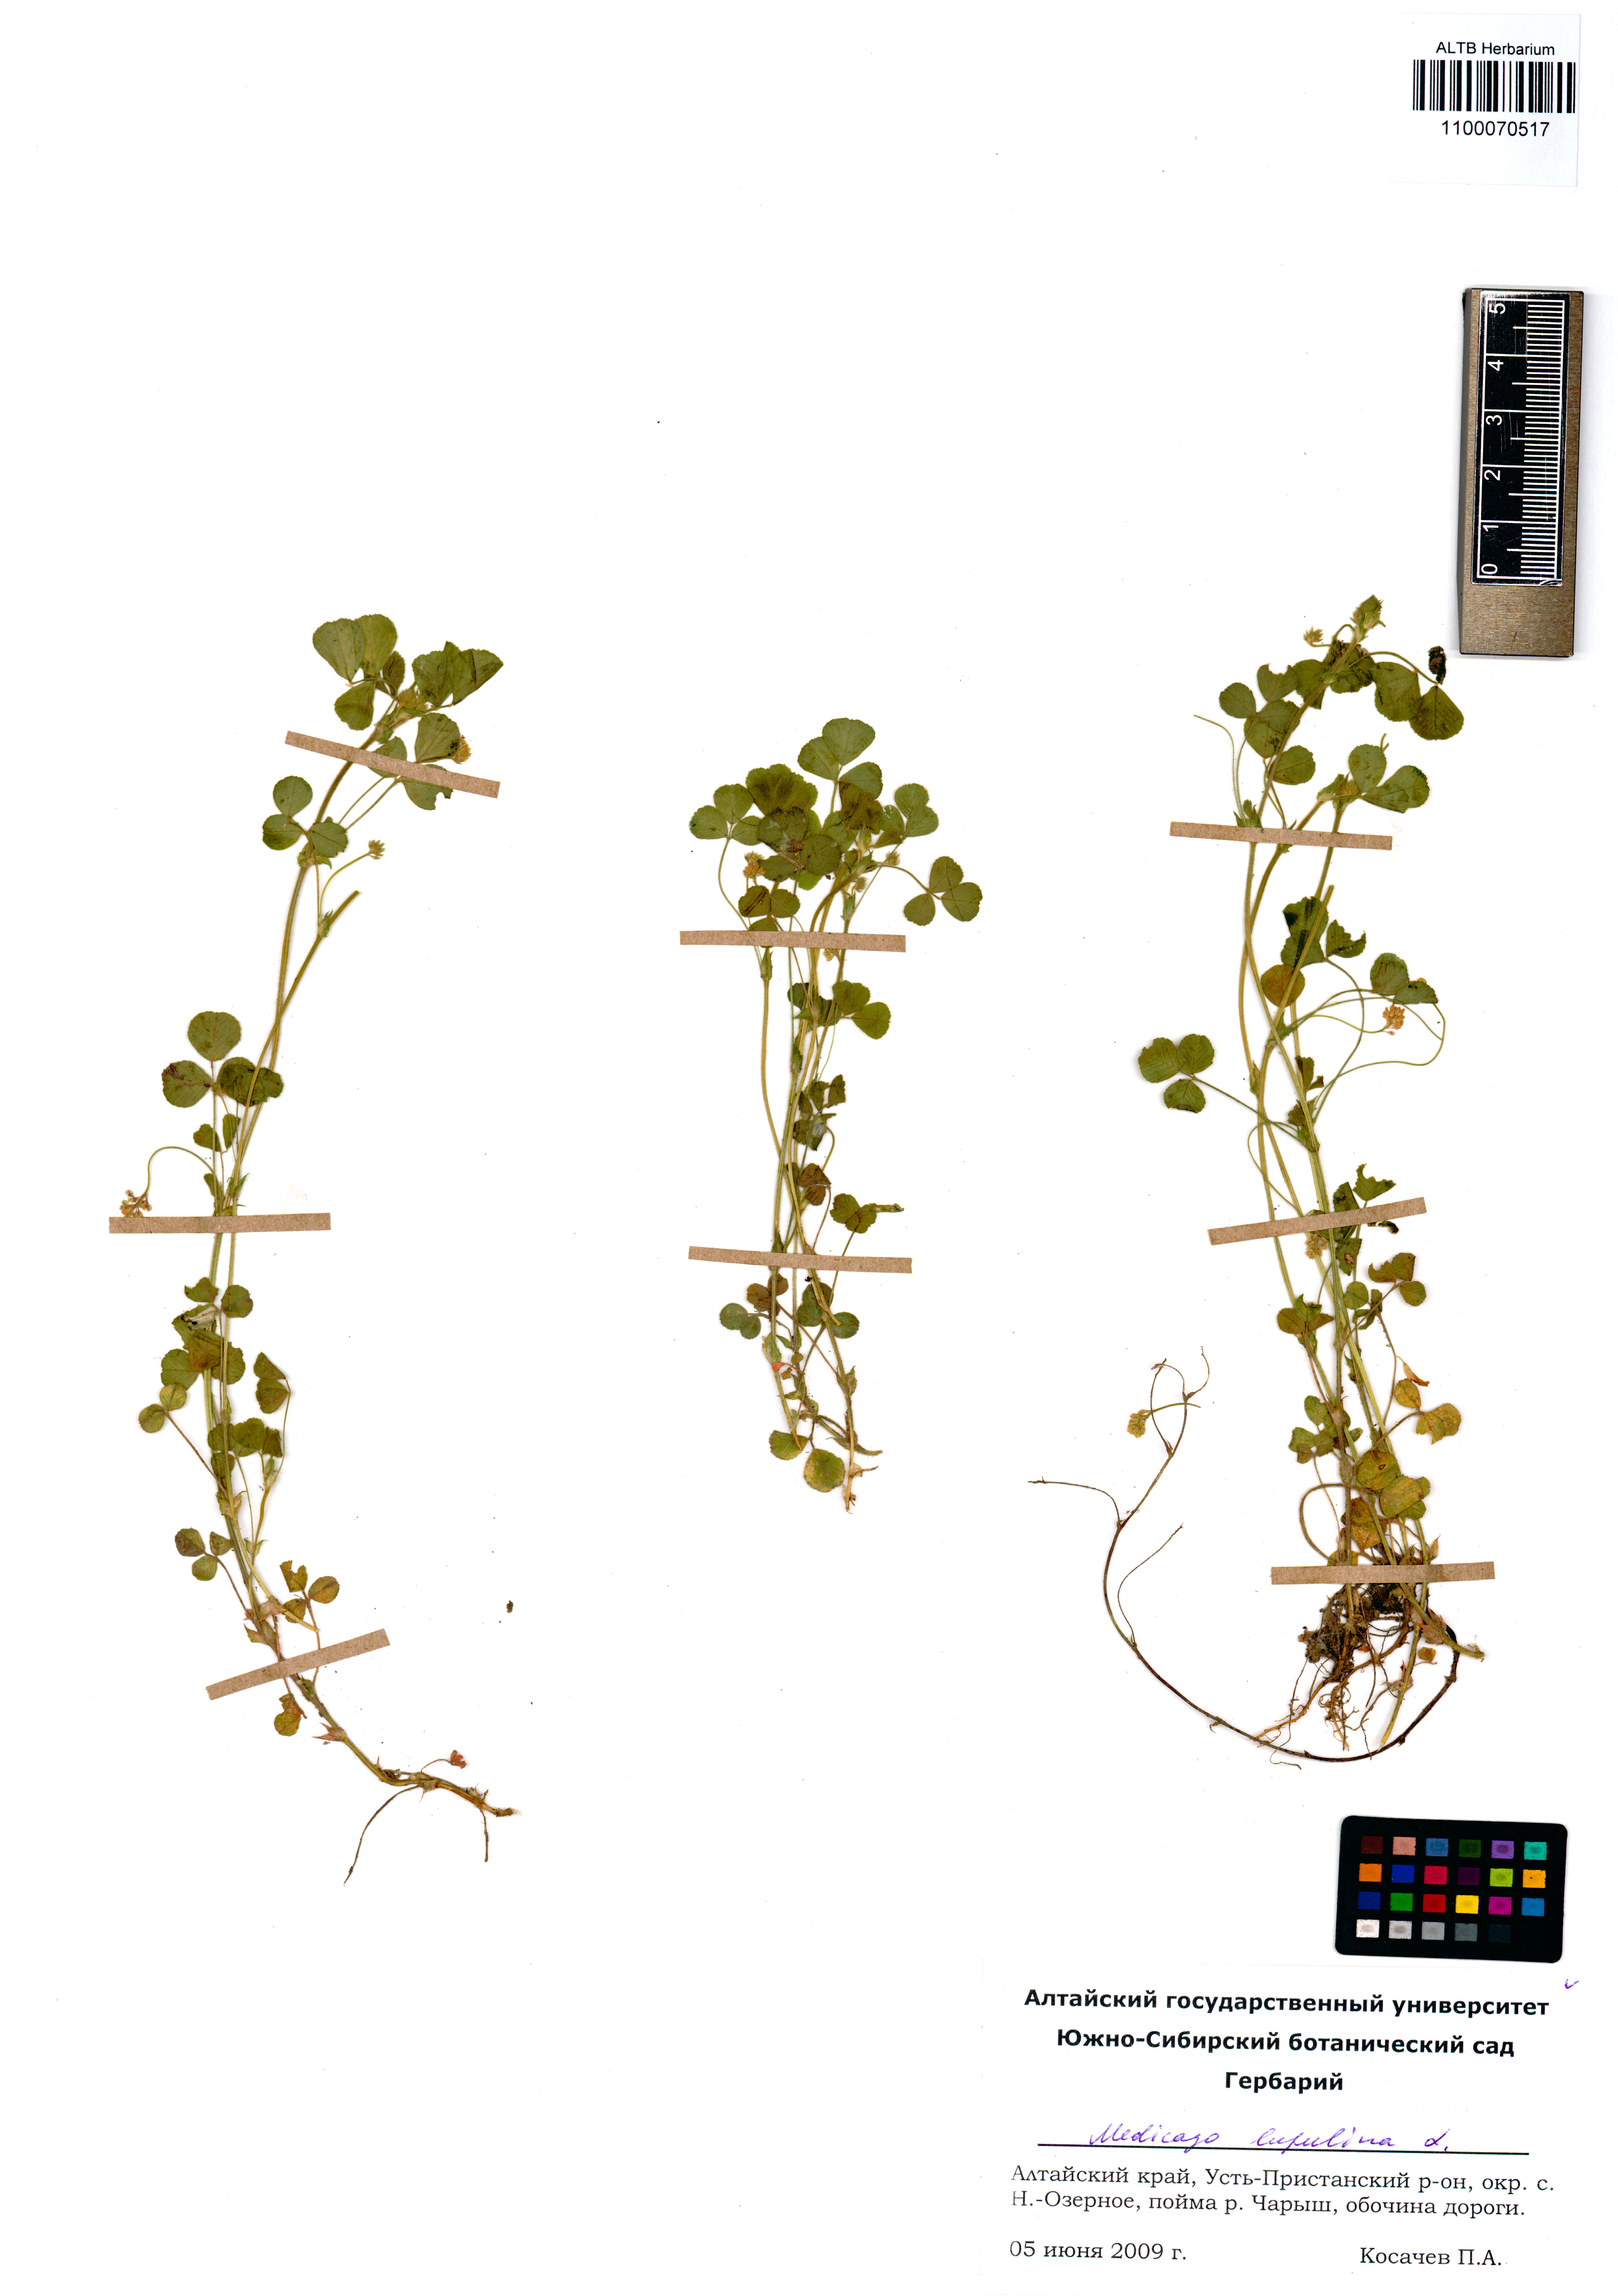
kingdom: Plantae
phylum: Tracheophyta
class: Magnoliopsida
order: Fabales
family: Fabaceae
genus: Medicago
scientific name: Medicago lupulina
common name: Black medick
